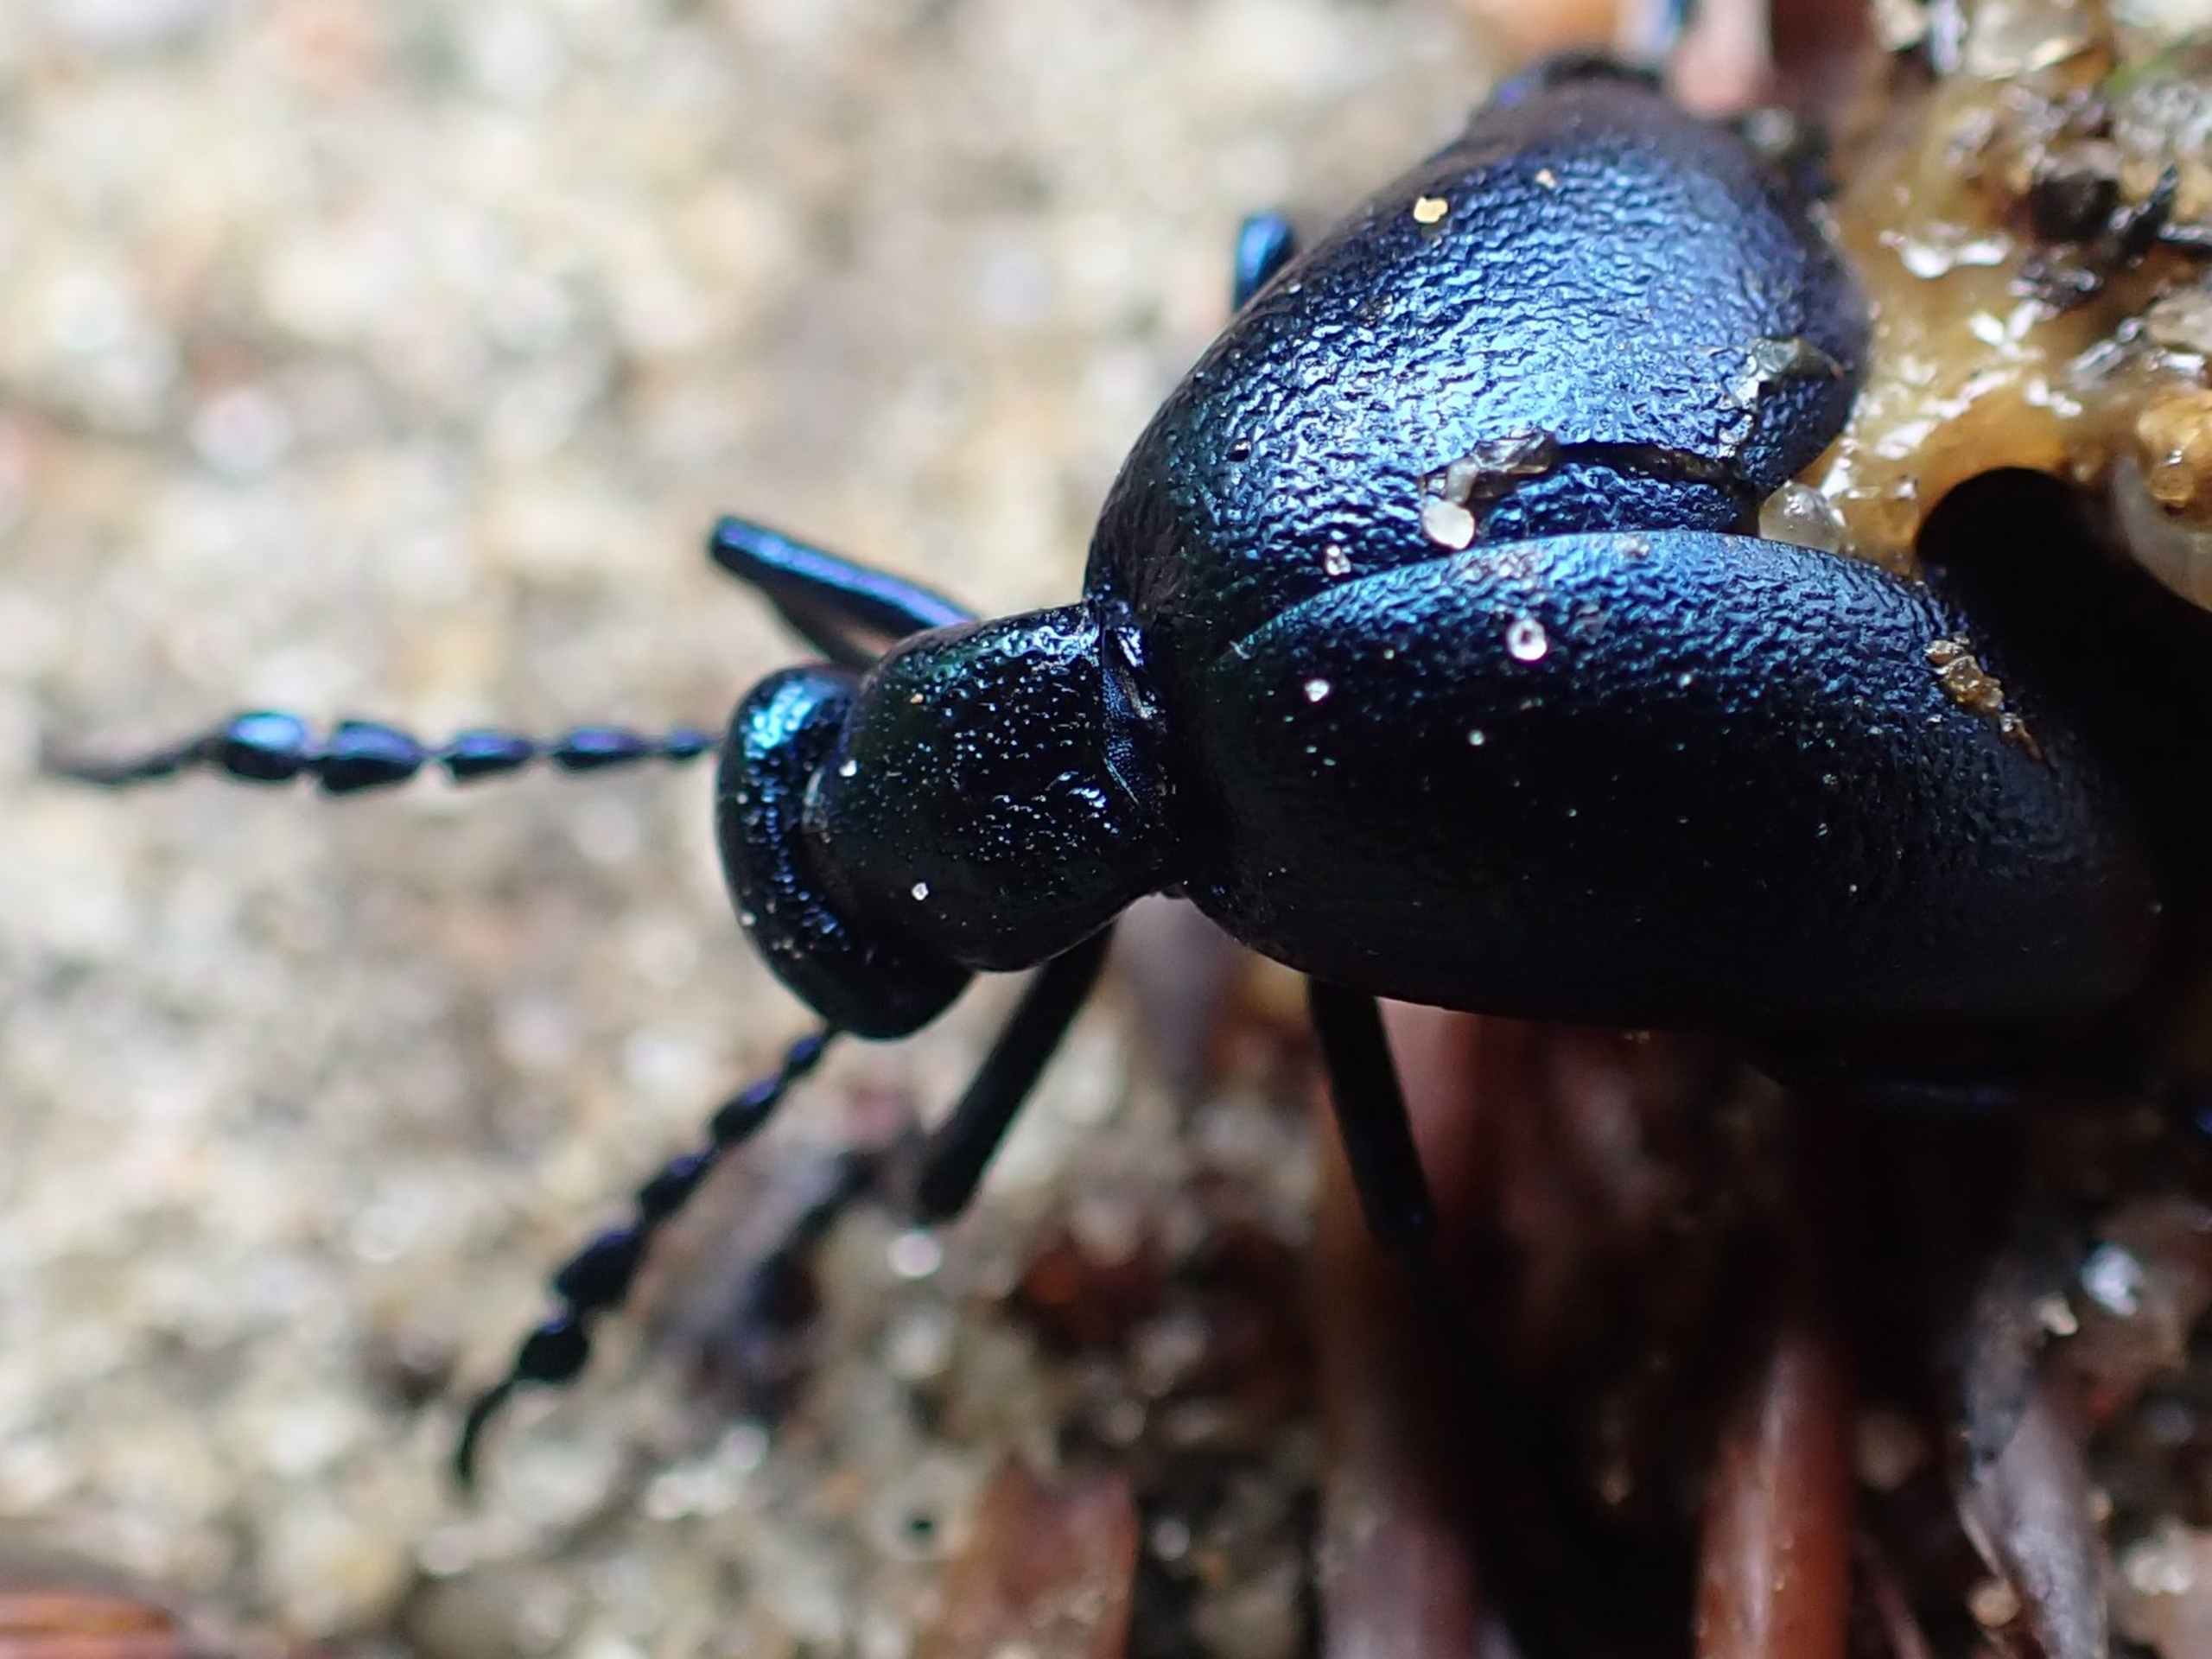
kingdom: Animalia
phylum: Arthropoda
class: Insecta
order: Coleoptera
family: Meloidae
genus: Meloe
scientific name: Meloe violaceus
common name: Blå oliebille
